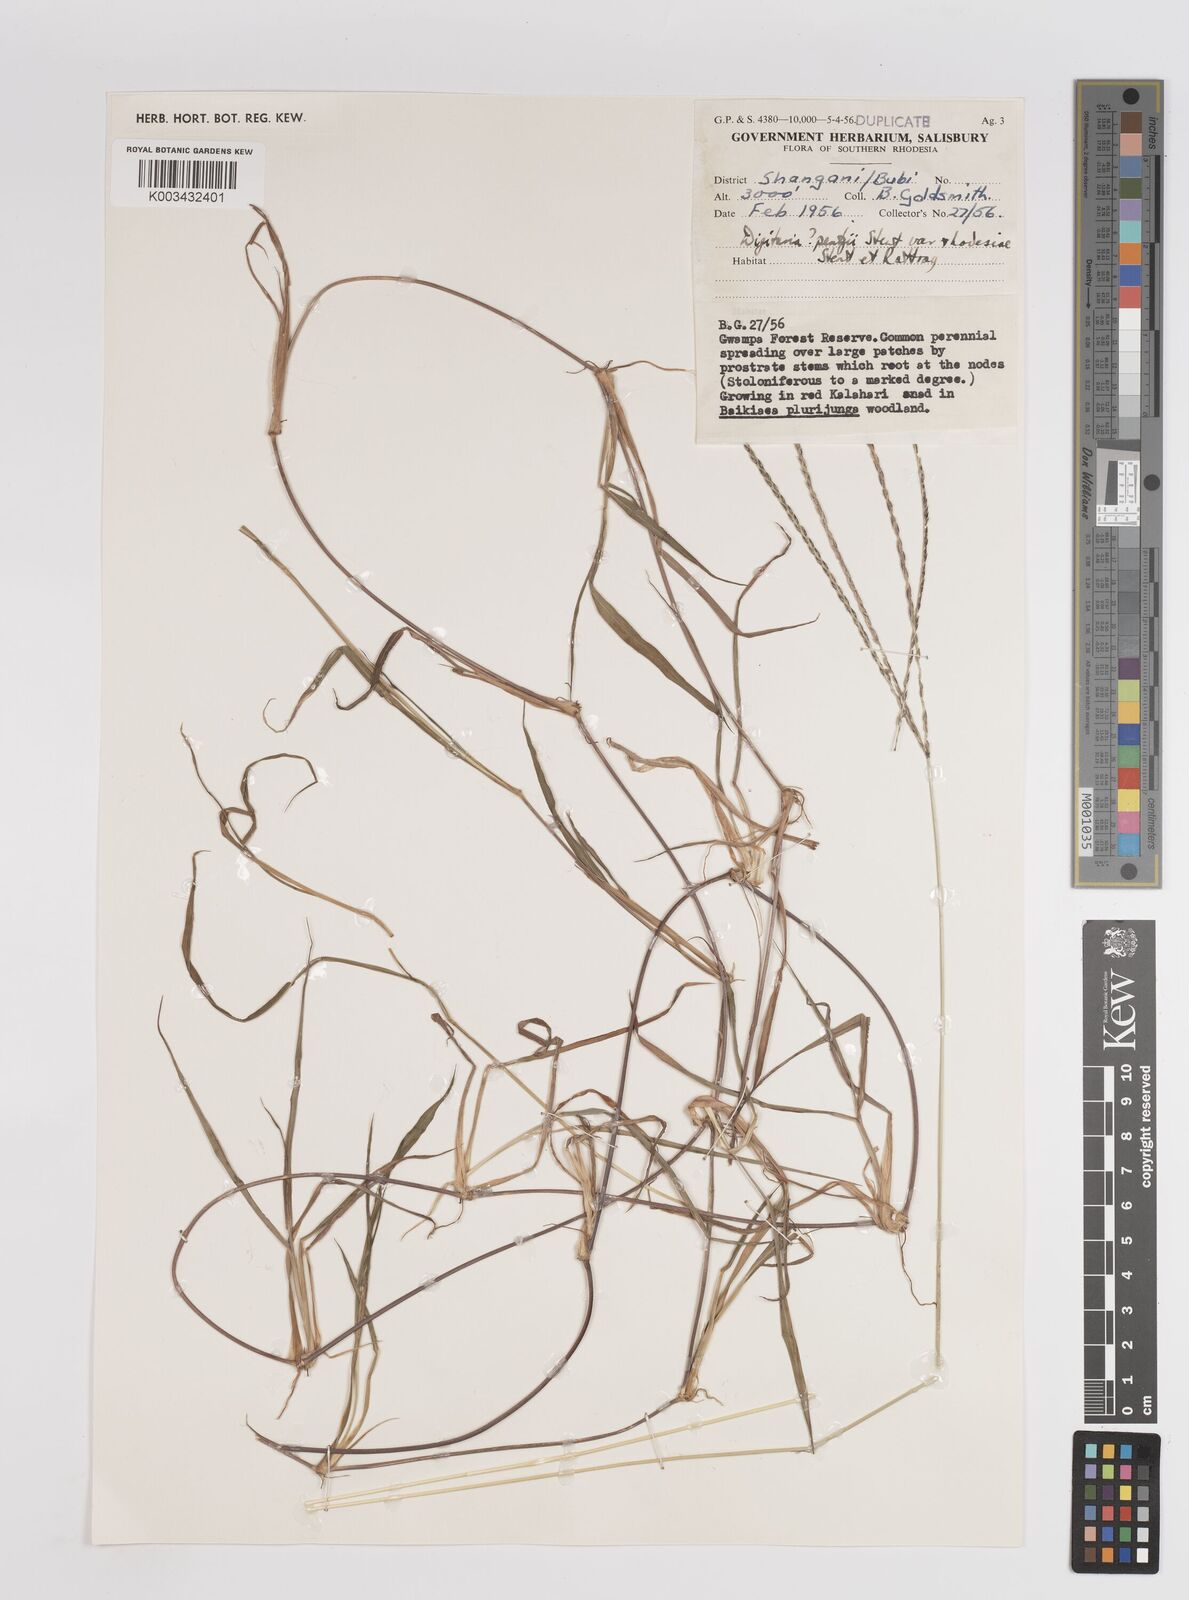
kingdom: Plantae
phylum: Tracheophyta
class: Liliopsida
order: Poales
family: Poaceae
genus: Digitaria
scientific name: Digitaria eriantha
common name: Digitgrass
